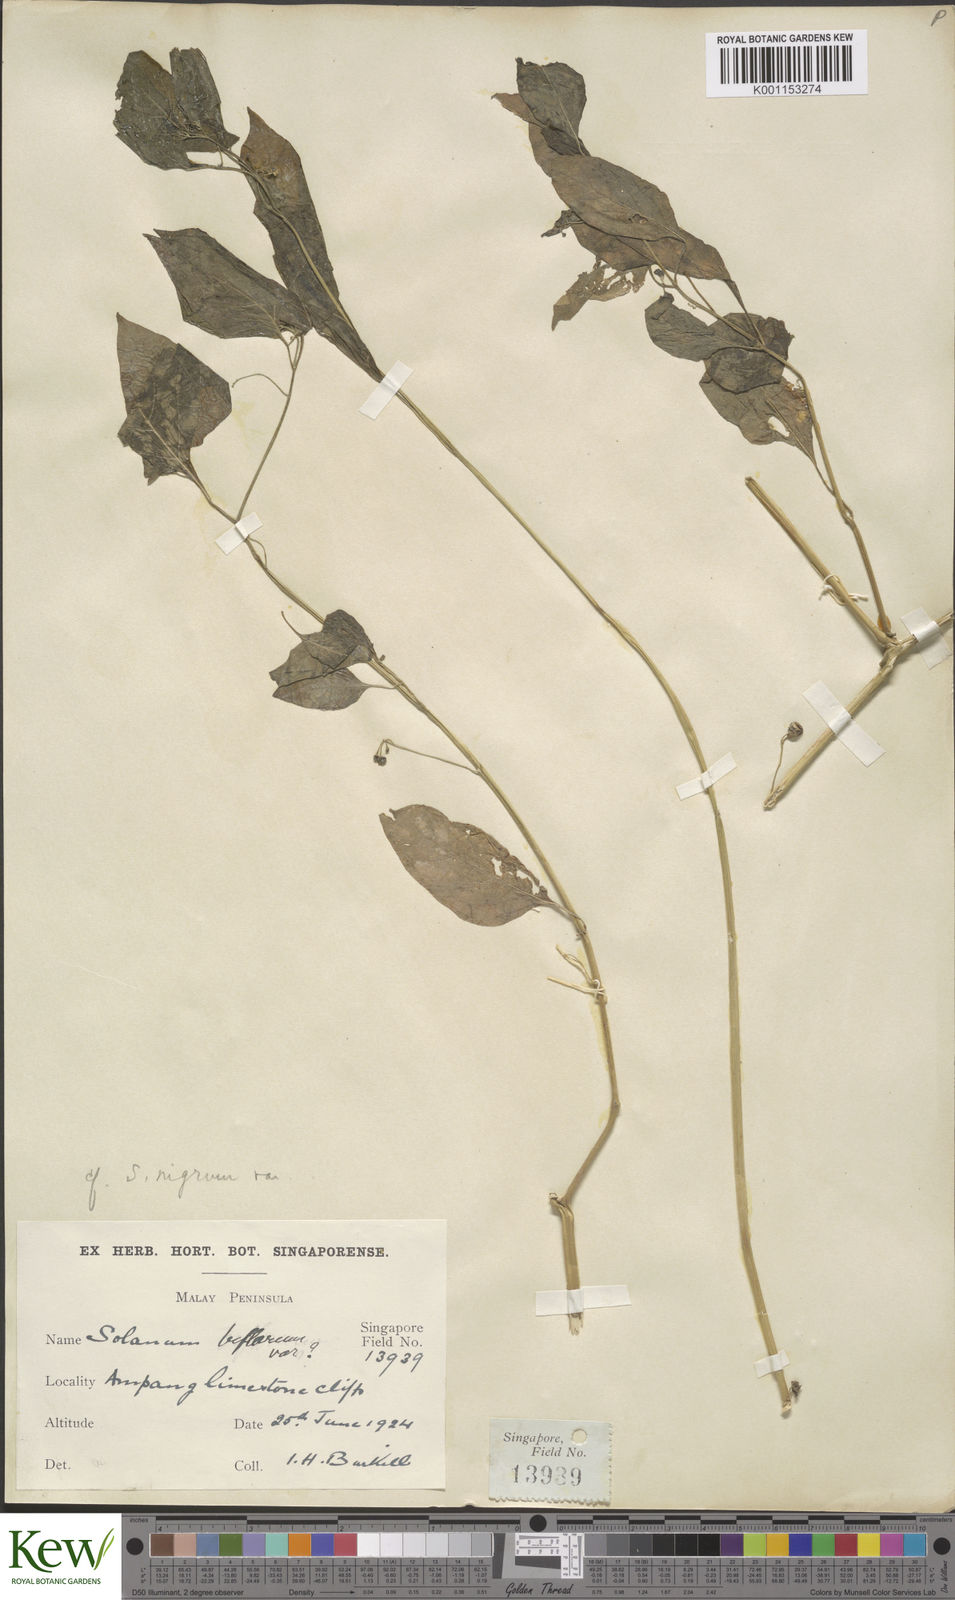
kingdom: Plantae
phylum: Tracheophyta
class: Magnoliopsida
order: Solanales
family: Solanaceae
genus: Solanum
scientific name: Solanum americanum
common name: American black nightshade
